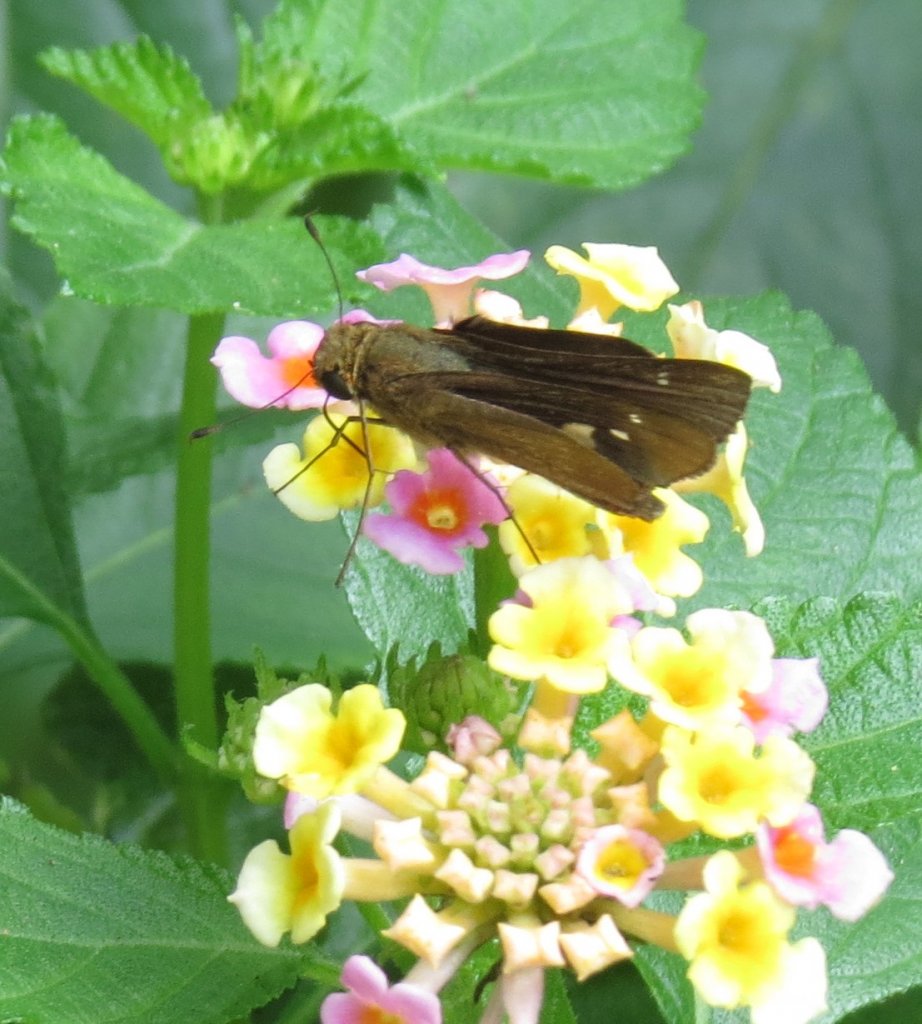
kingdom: Animalia
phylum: Arthropoda
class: Insecta
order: Lepidoptera
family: Hesperiidae
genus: Panoquina
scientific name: Panoquina ocola
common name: Ocola Skipper
